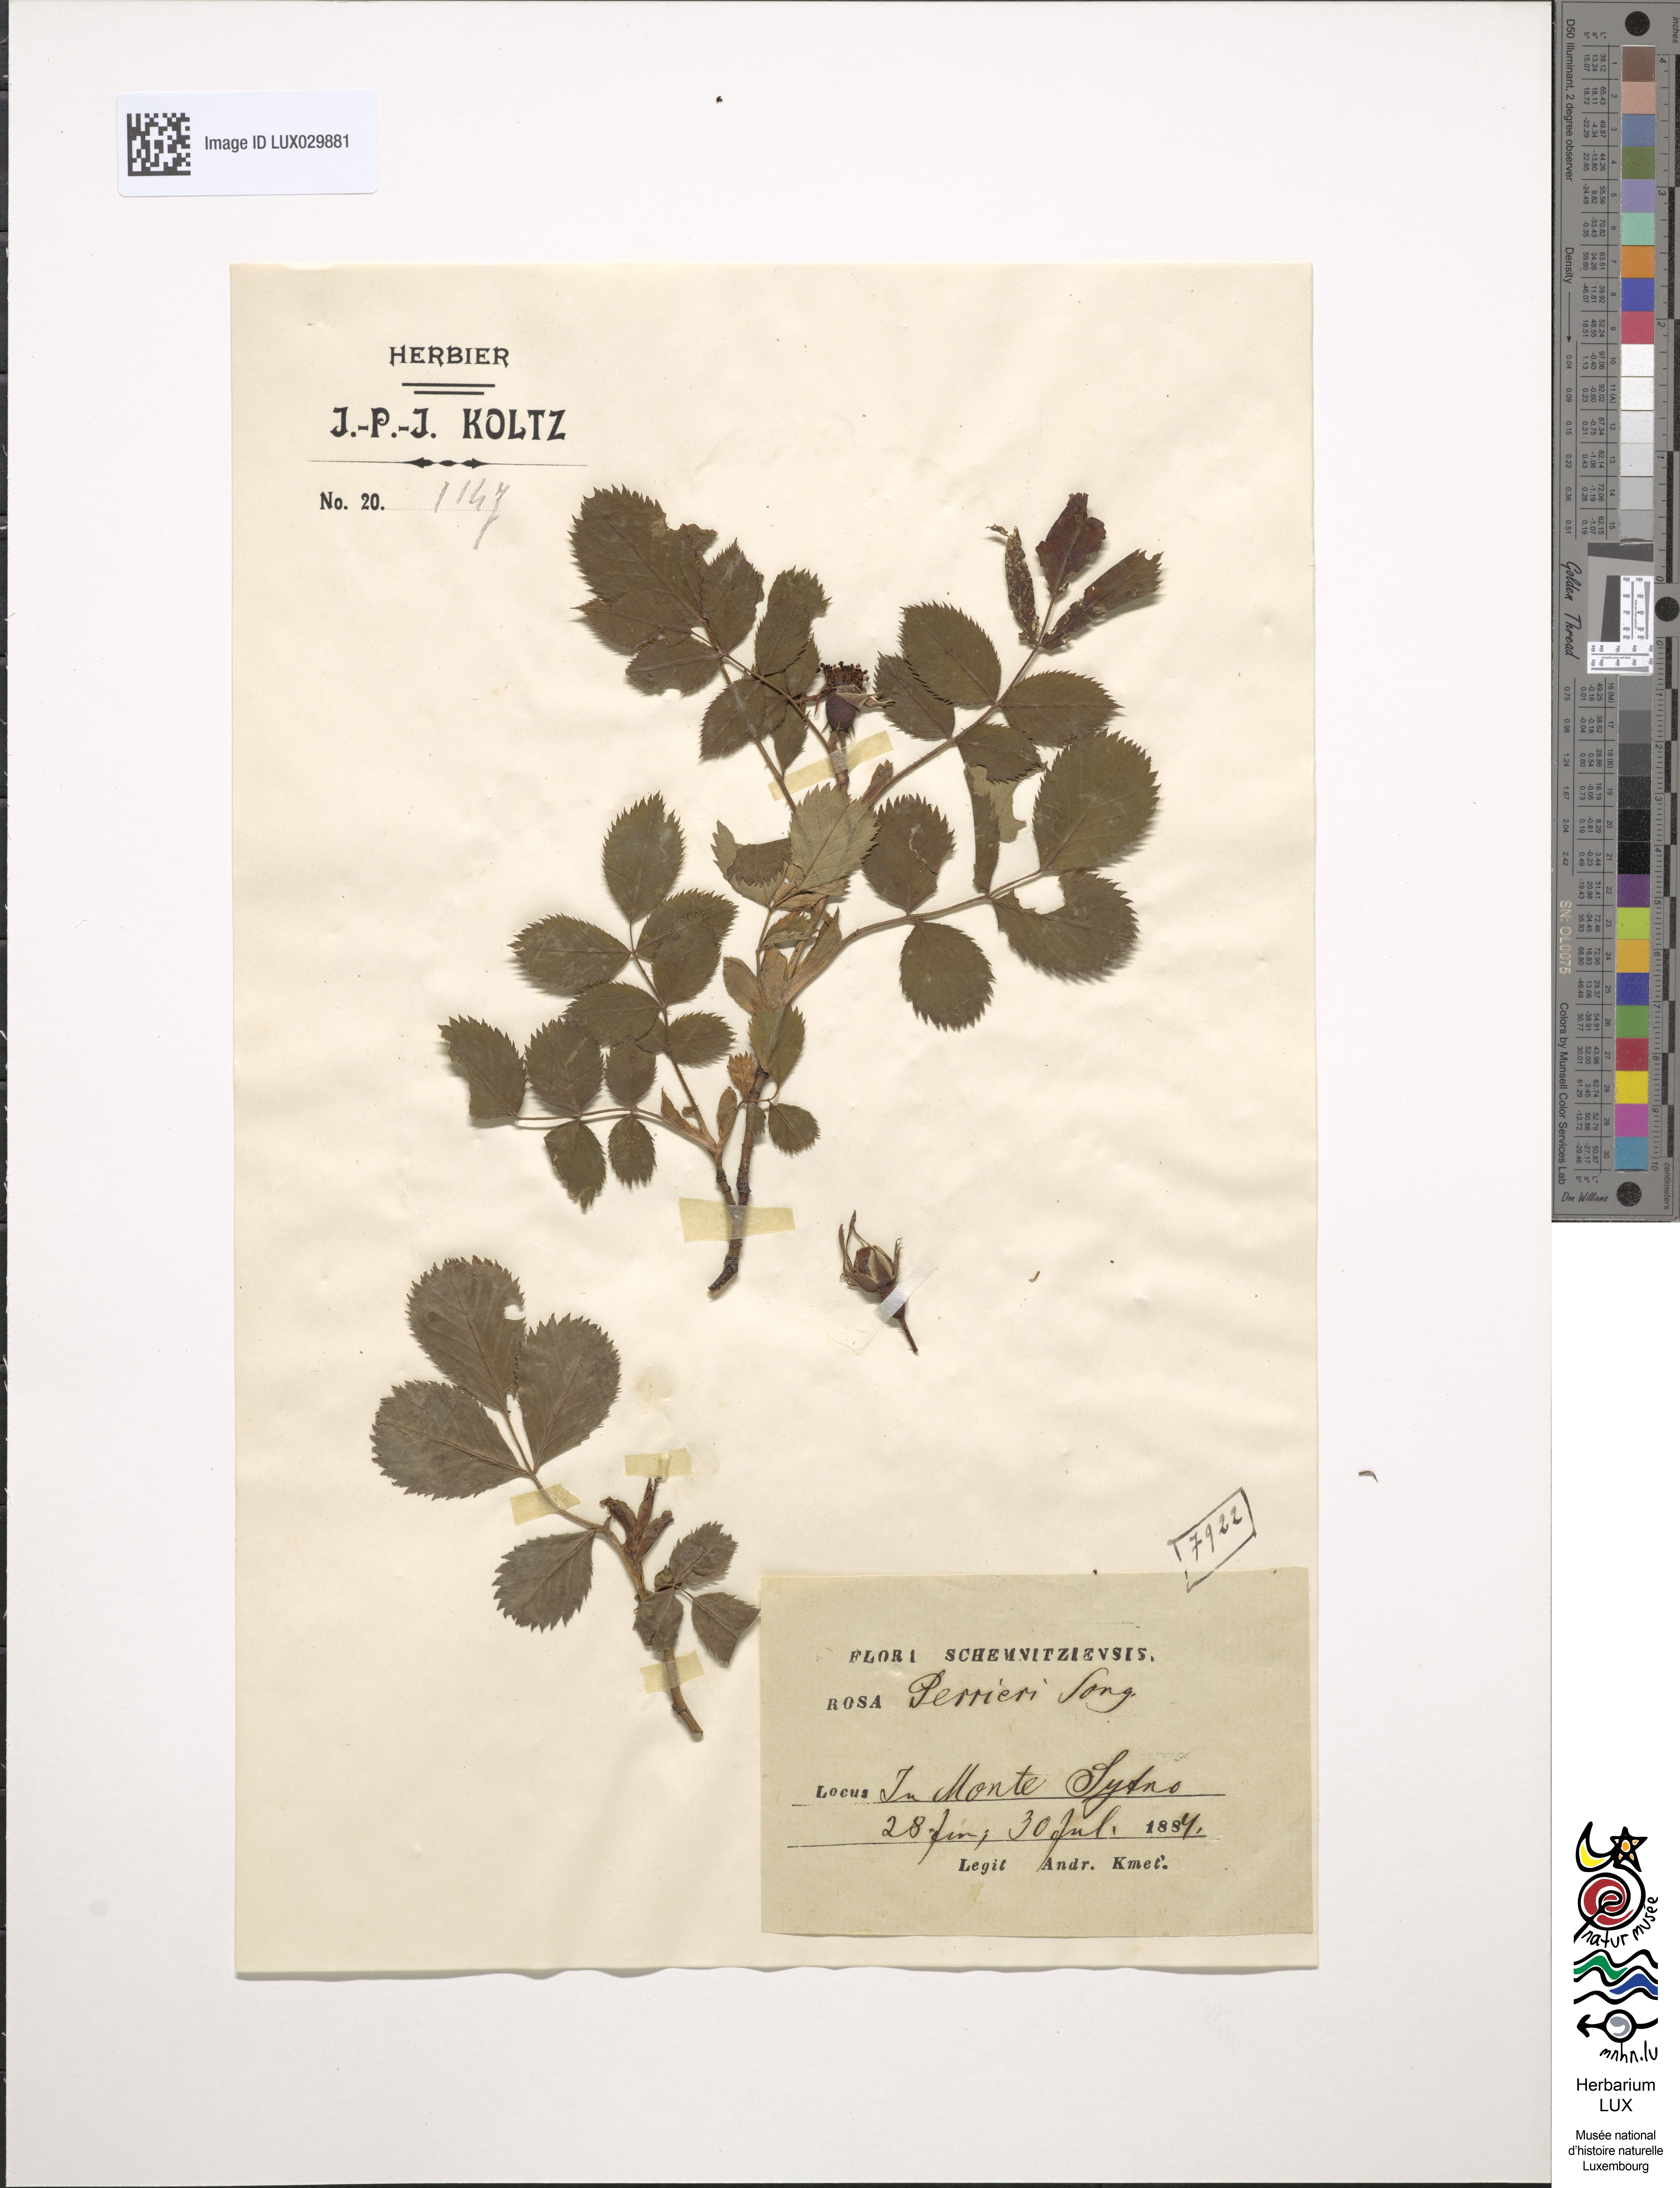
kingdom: Plantae
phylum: Tracheophyta
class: Magnoliopsida
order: Rosales
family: Rosaceae
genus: Rosa
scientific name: Rosa salaevensis
